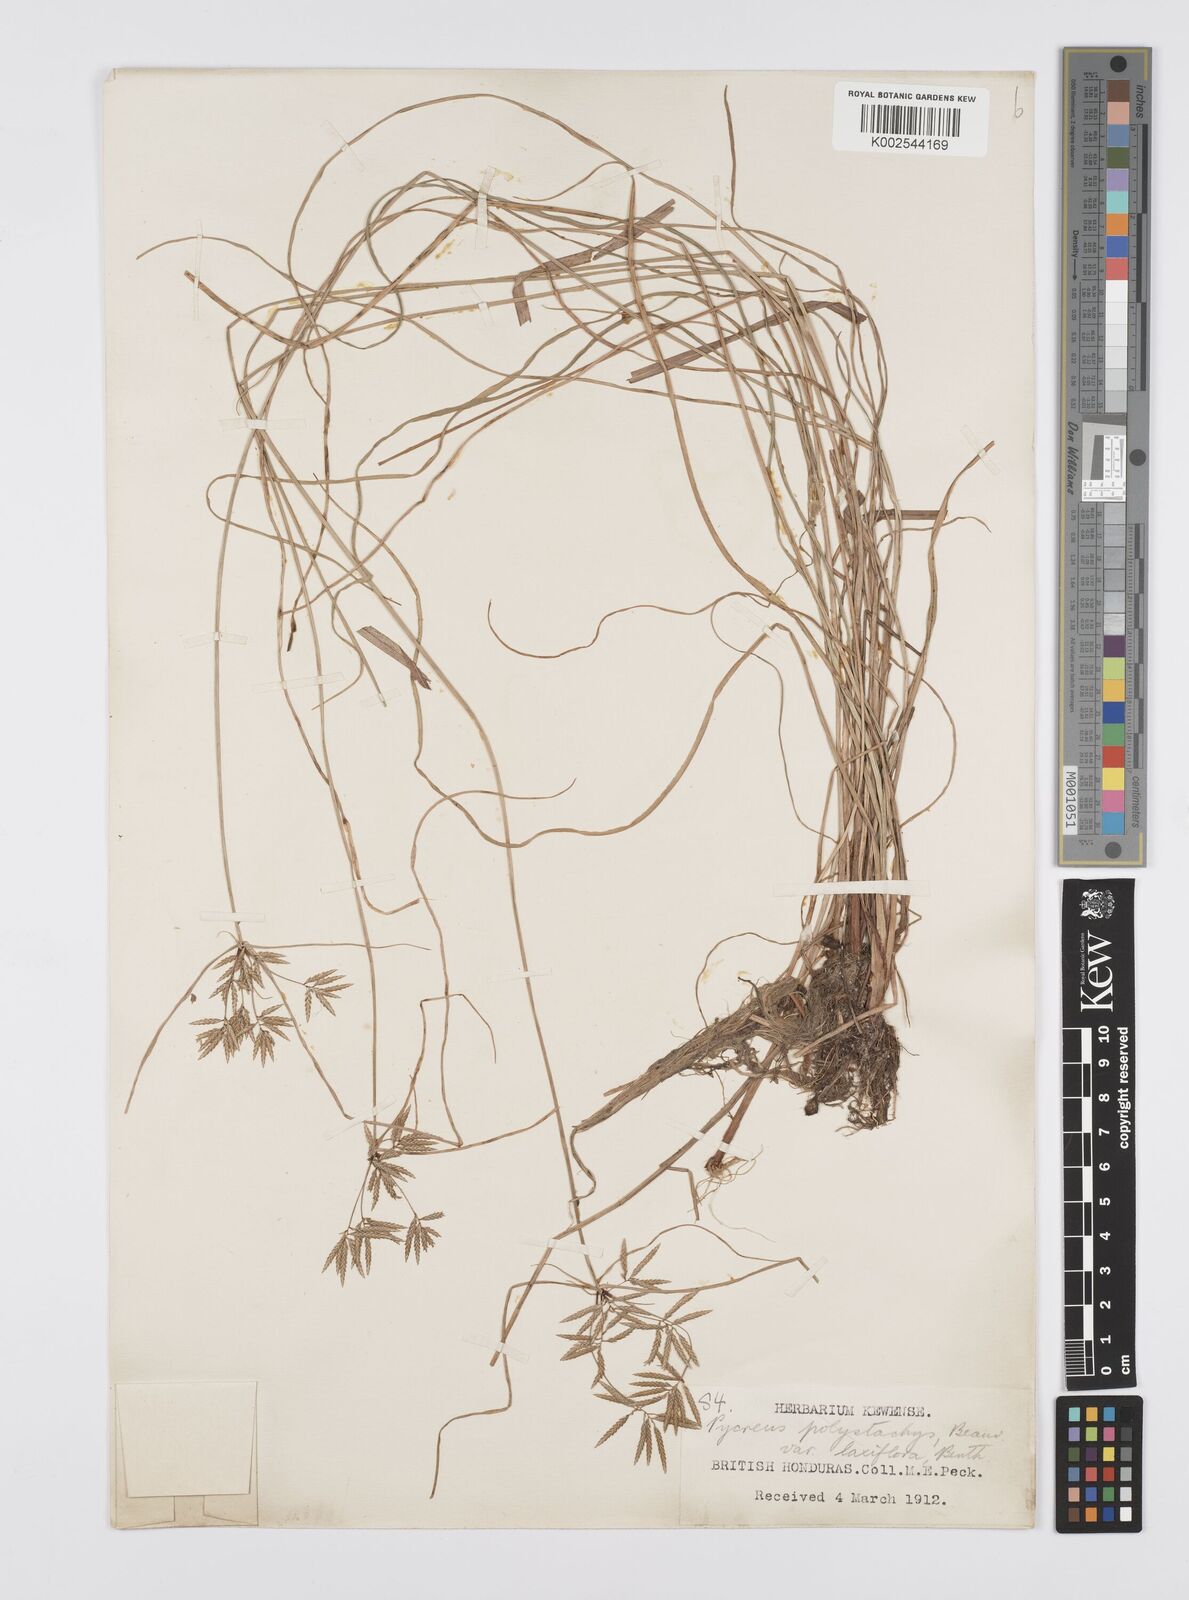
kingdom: Plantae
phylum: Tracheophyta
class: Liliopsida
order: Poales
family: Cyperaceae
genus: Cyperus
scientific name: Cyperus polystachyos
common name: Bunchy flat sedge
